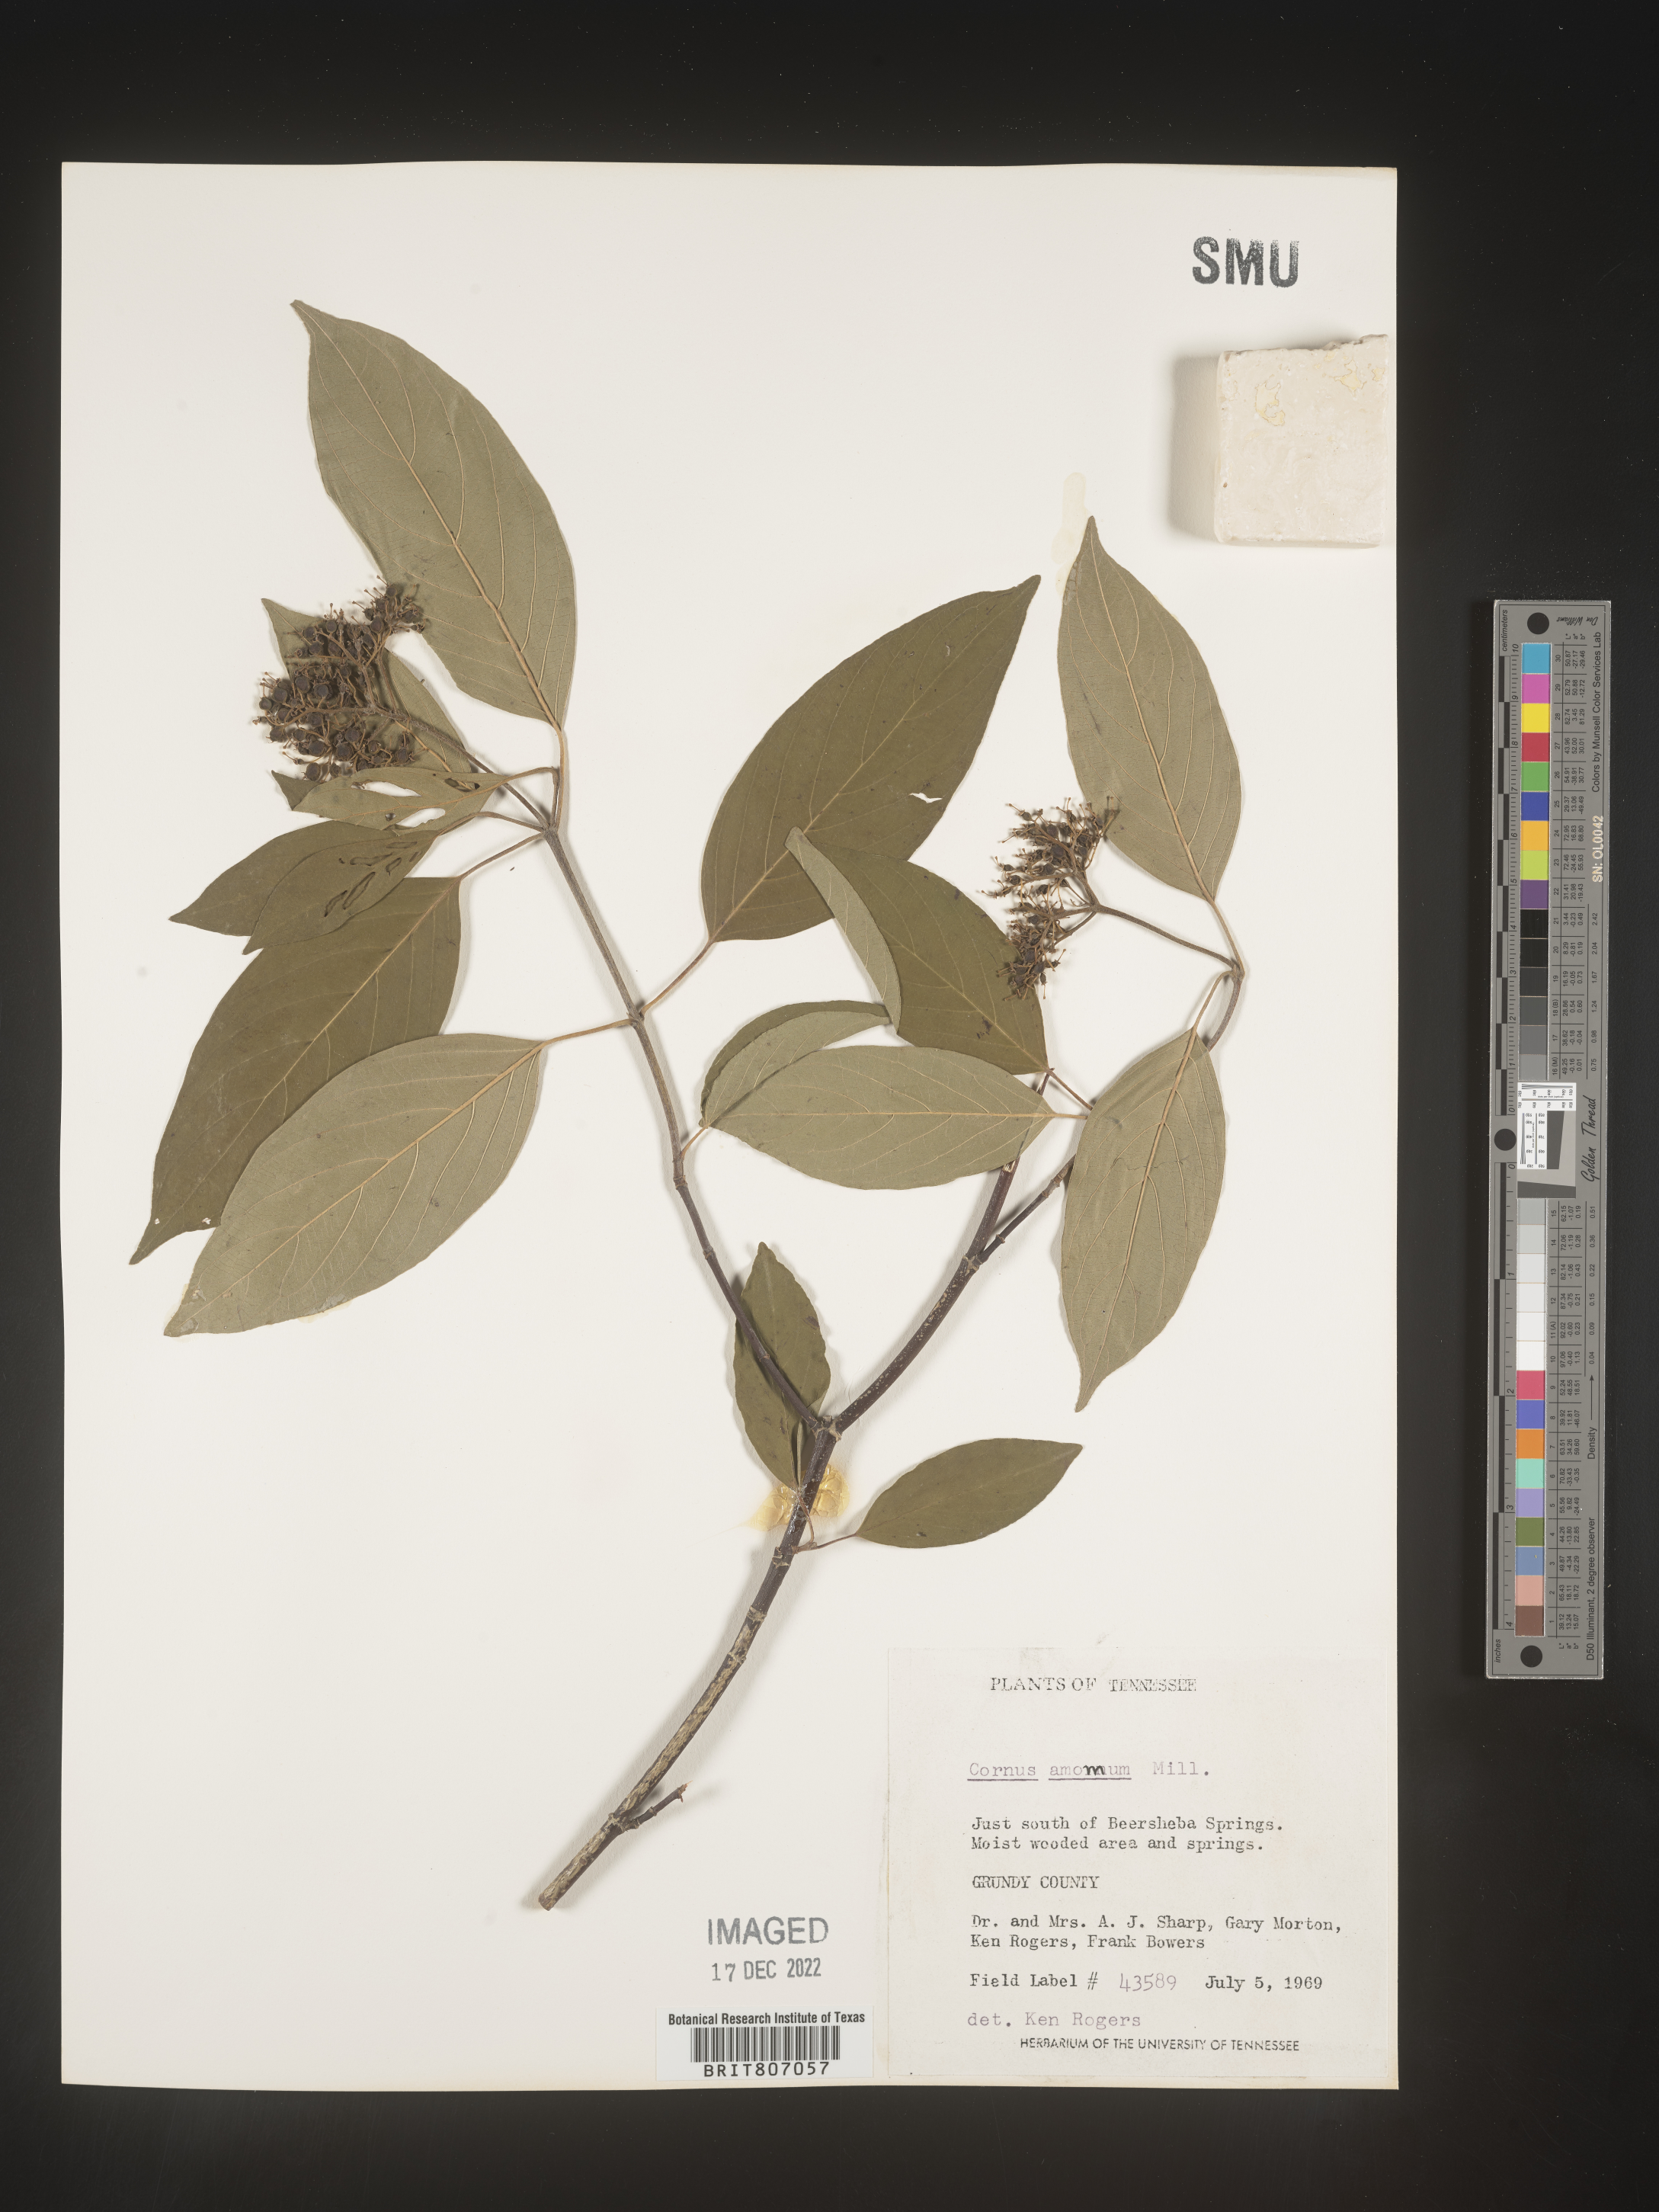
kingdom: Plantae
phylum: Tracheophyta
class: Magnoliopsida
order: Cornales
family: Cornaceae
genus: Cornus
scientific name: Cornus amomum
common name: Silky dogwood
